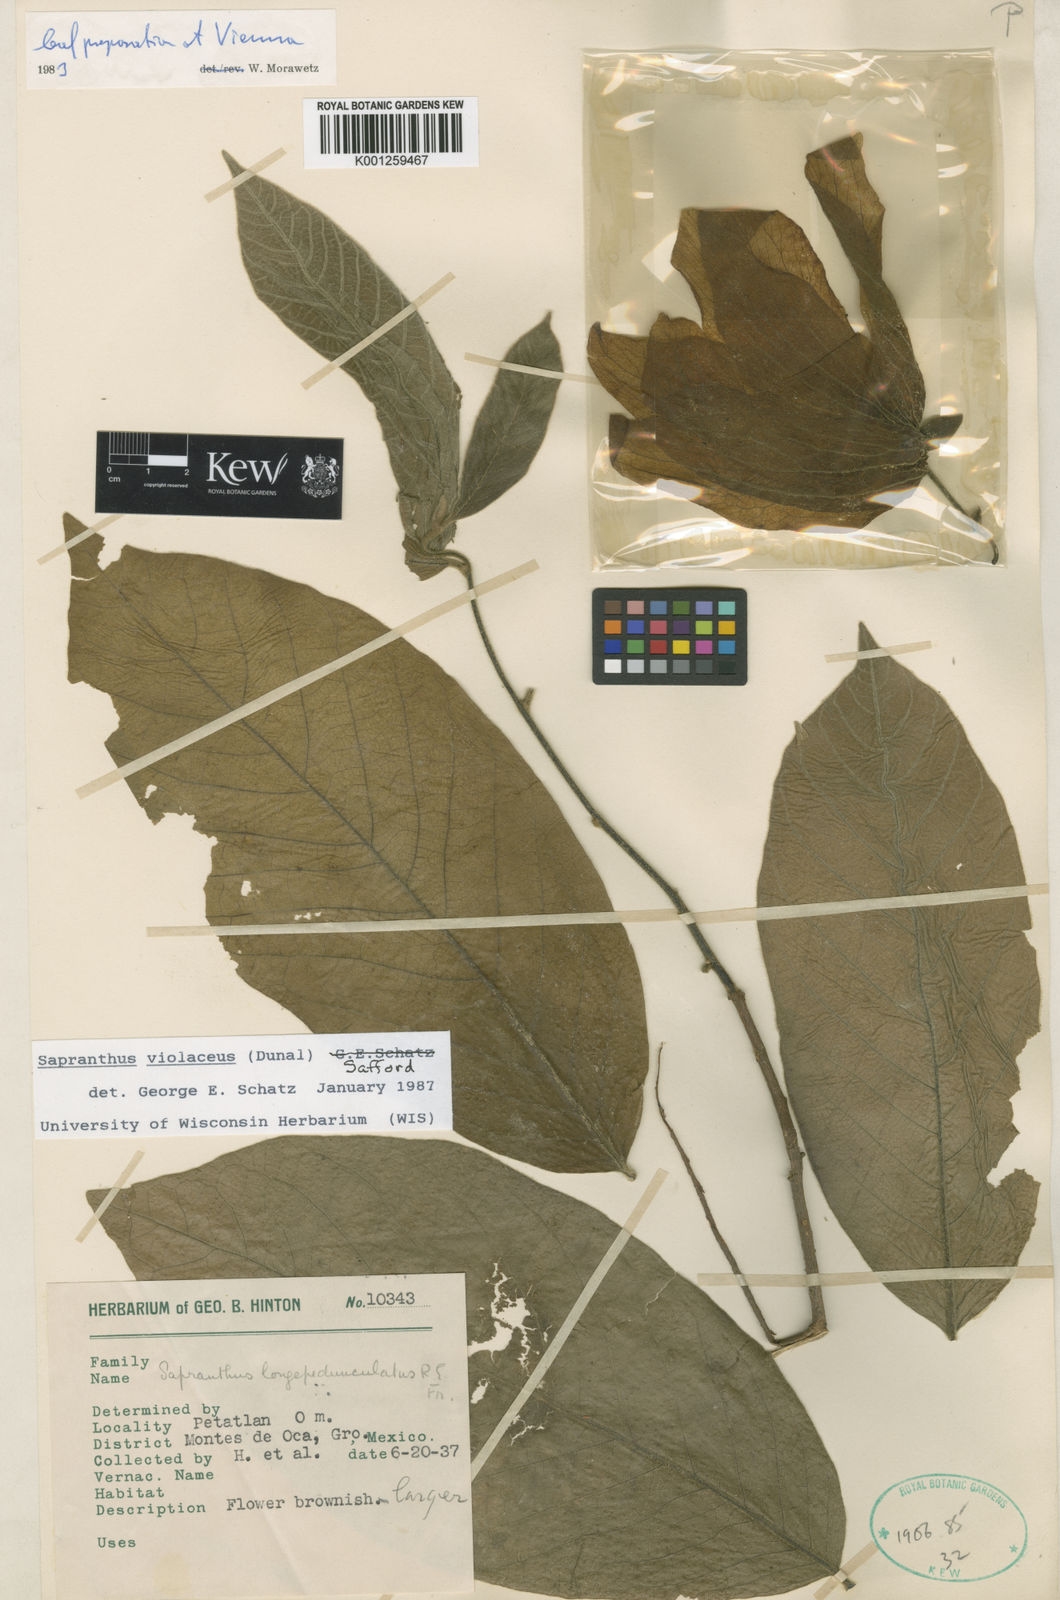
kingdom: Plantae
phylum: Tracheophyta
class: Magnoliopsida
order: Magnoliales
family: Annonaceae
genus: Sapranthus
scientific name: Sapranthus
